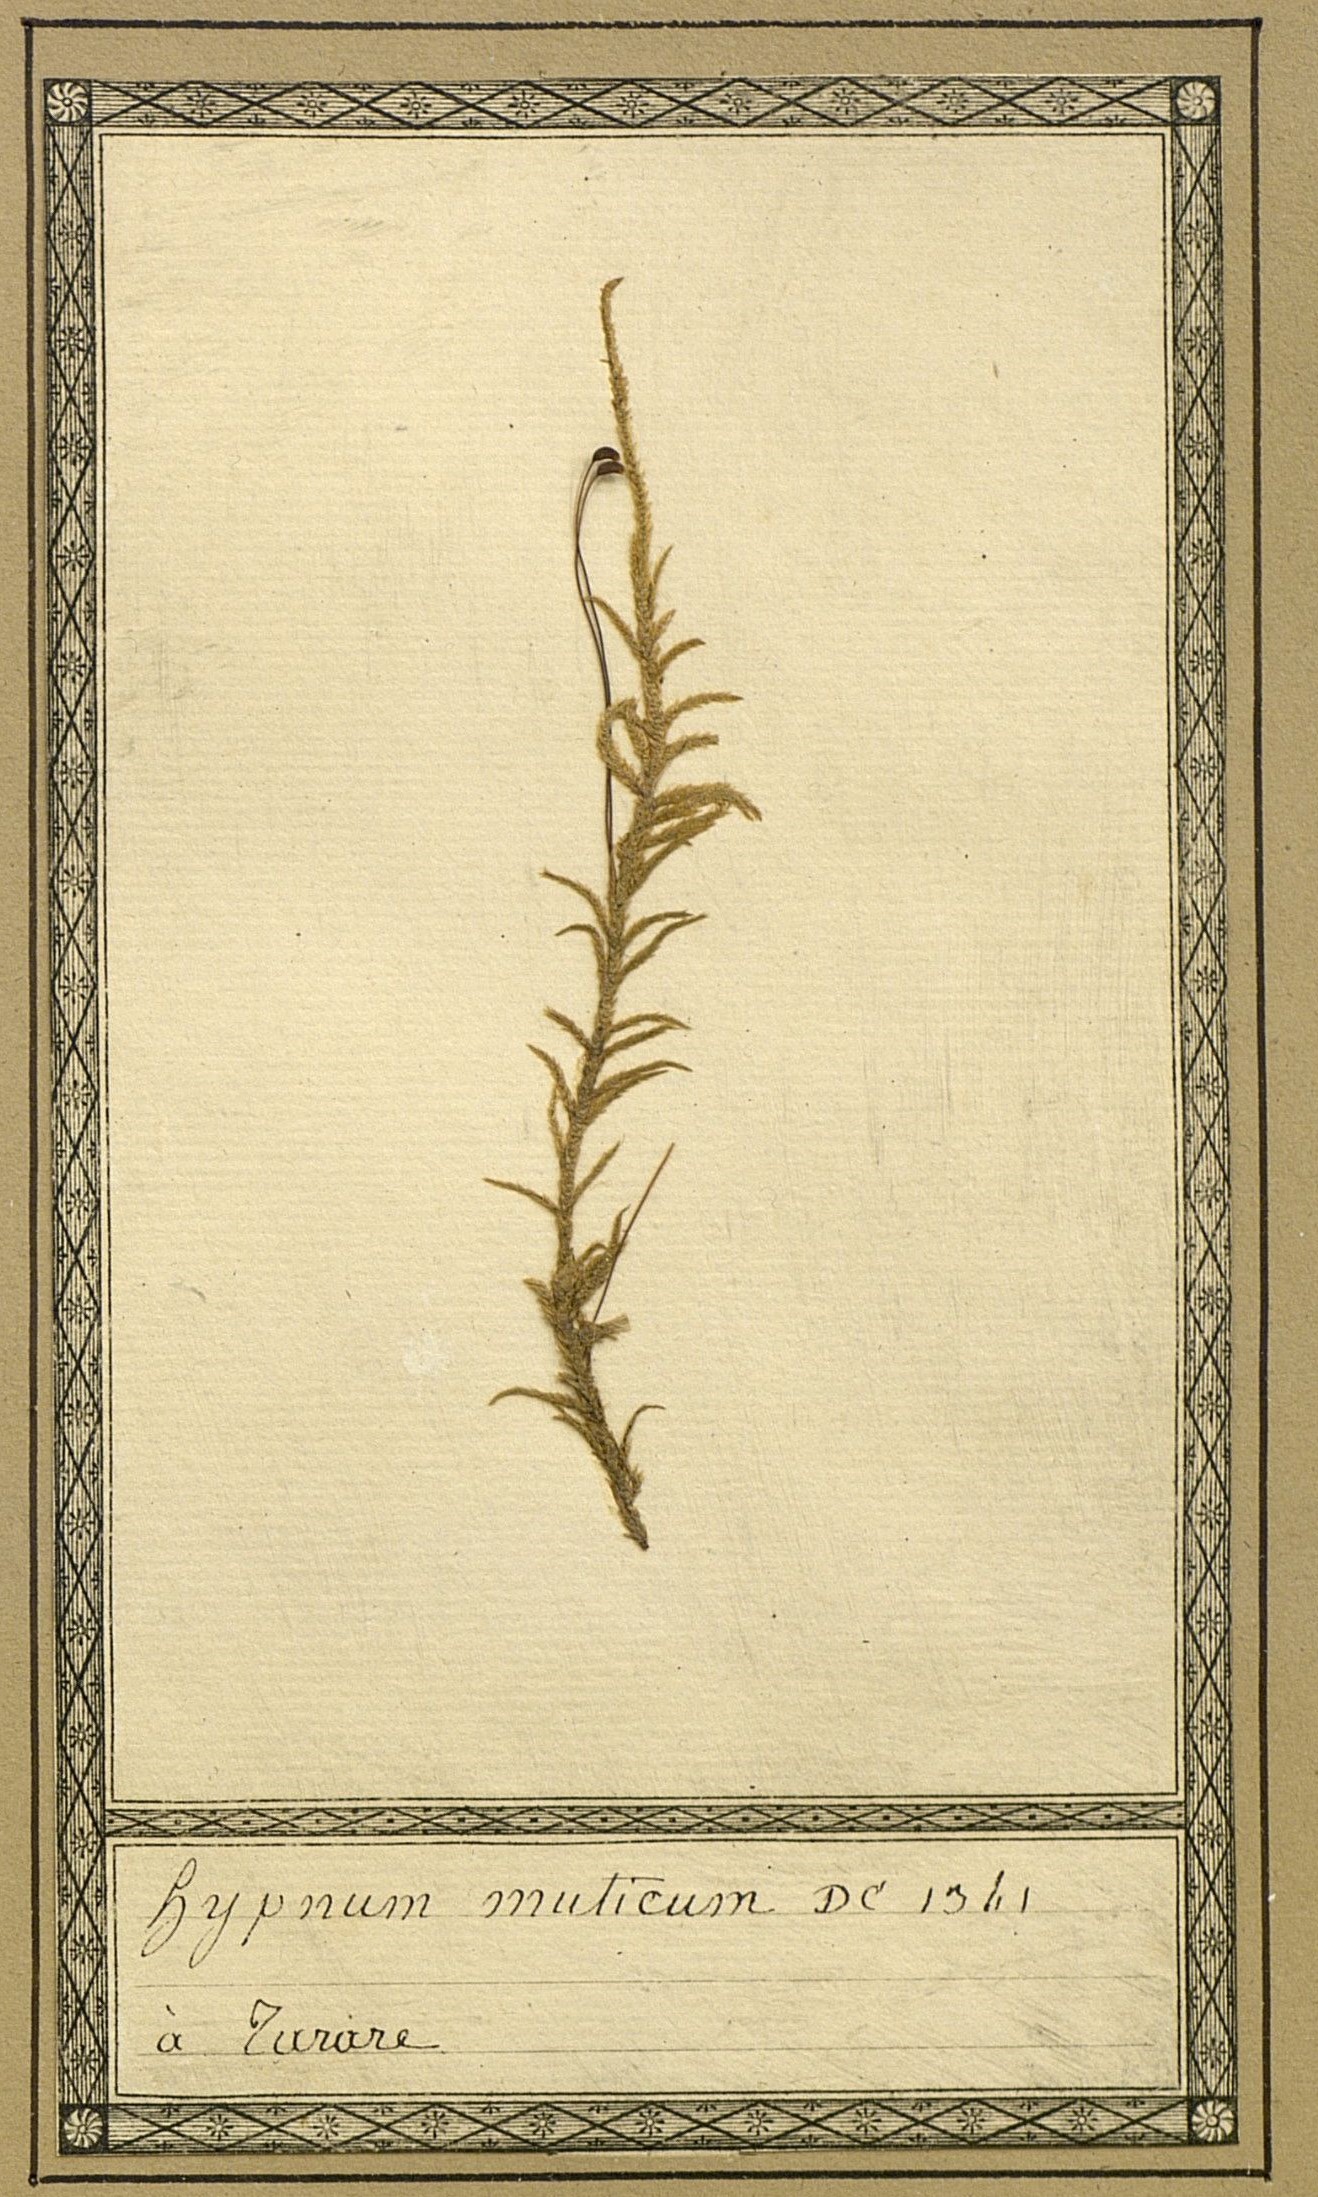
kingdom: Plantae
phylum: Bryophyta
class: Bryopsida
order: Hypnales
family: Hylocomiaceae
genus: Pleurozium
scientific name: Pleurozium schreberi
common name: Red-stemmed feather moss
